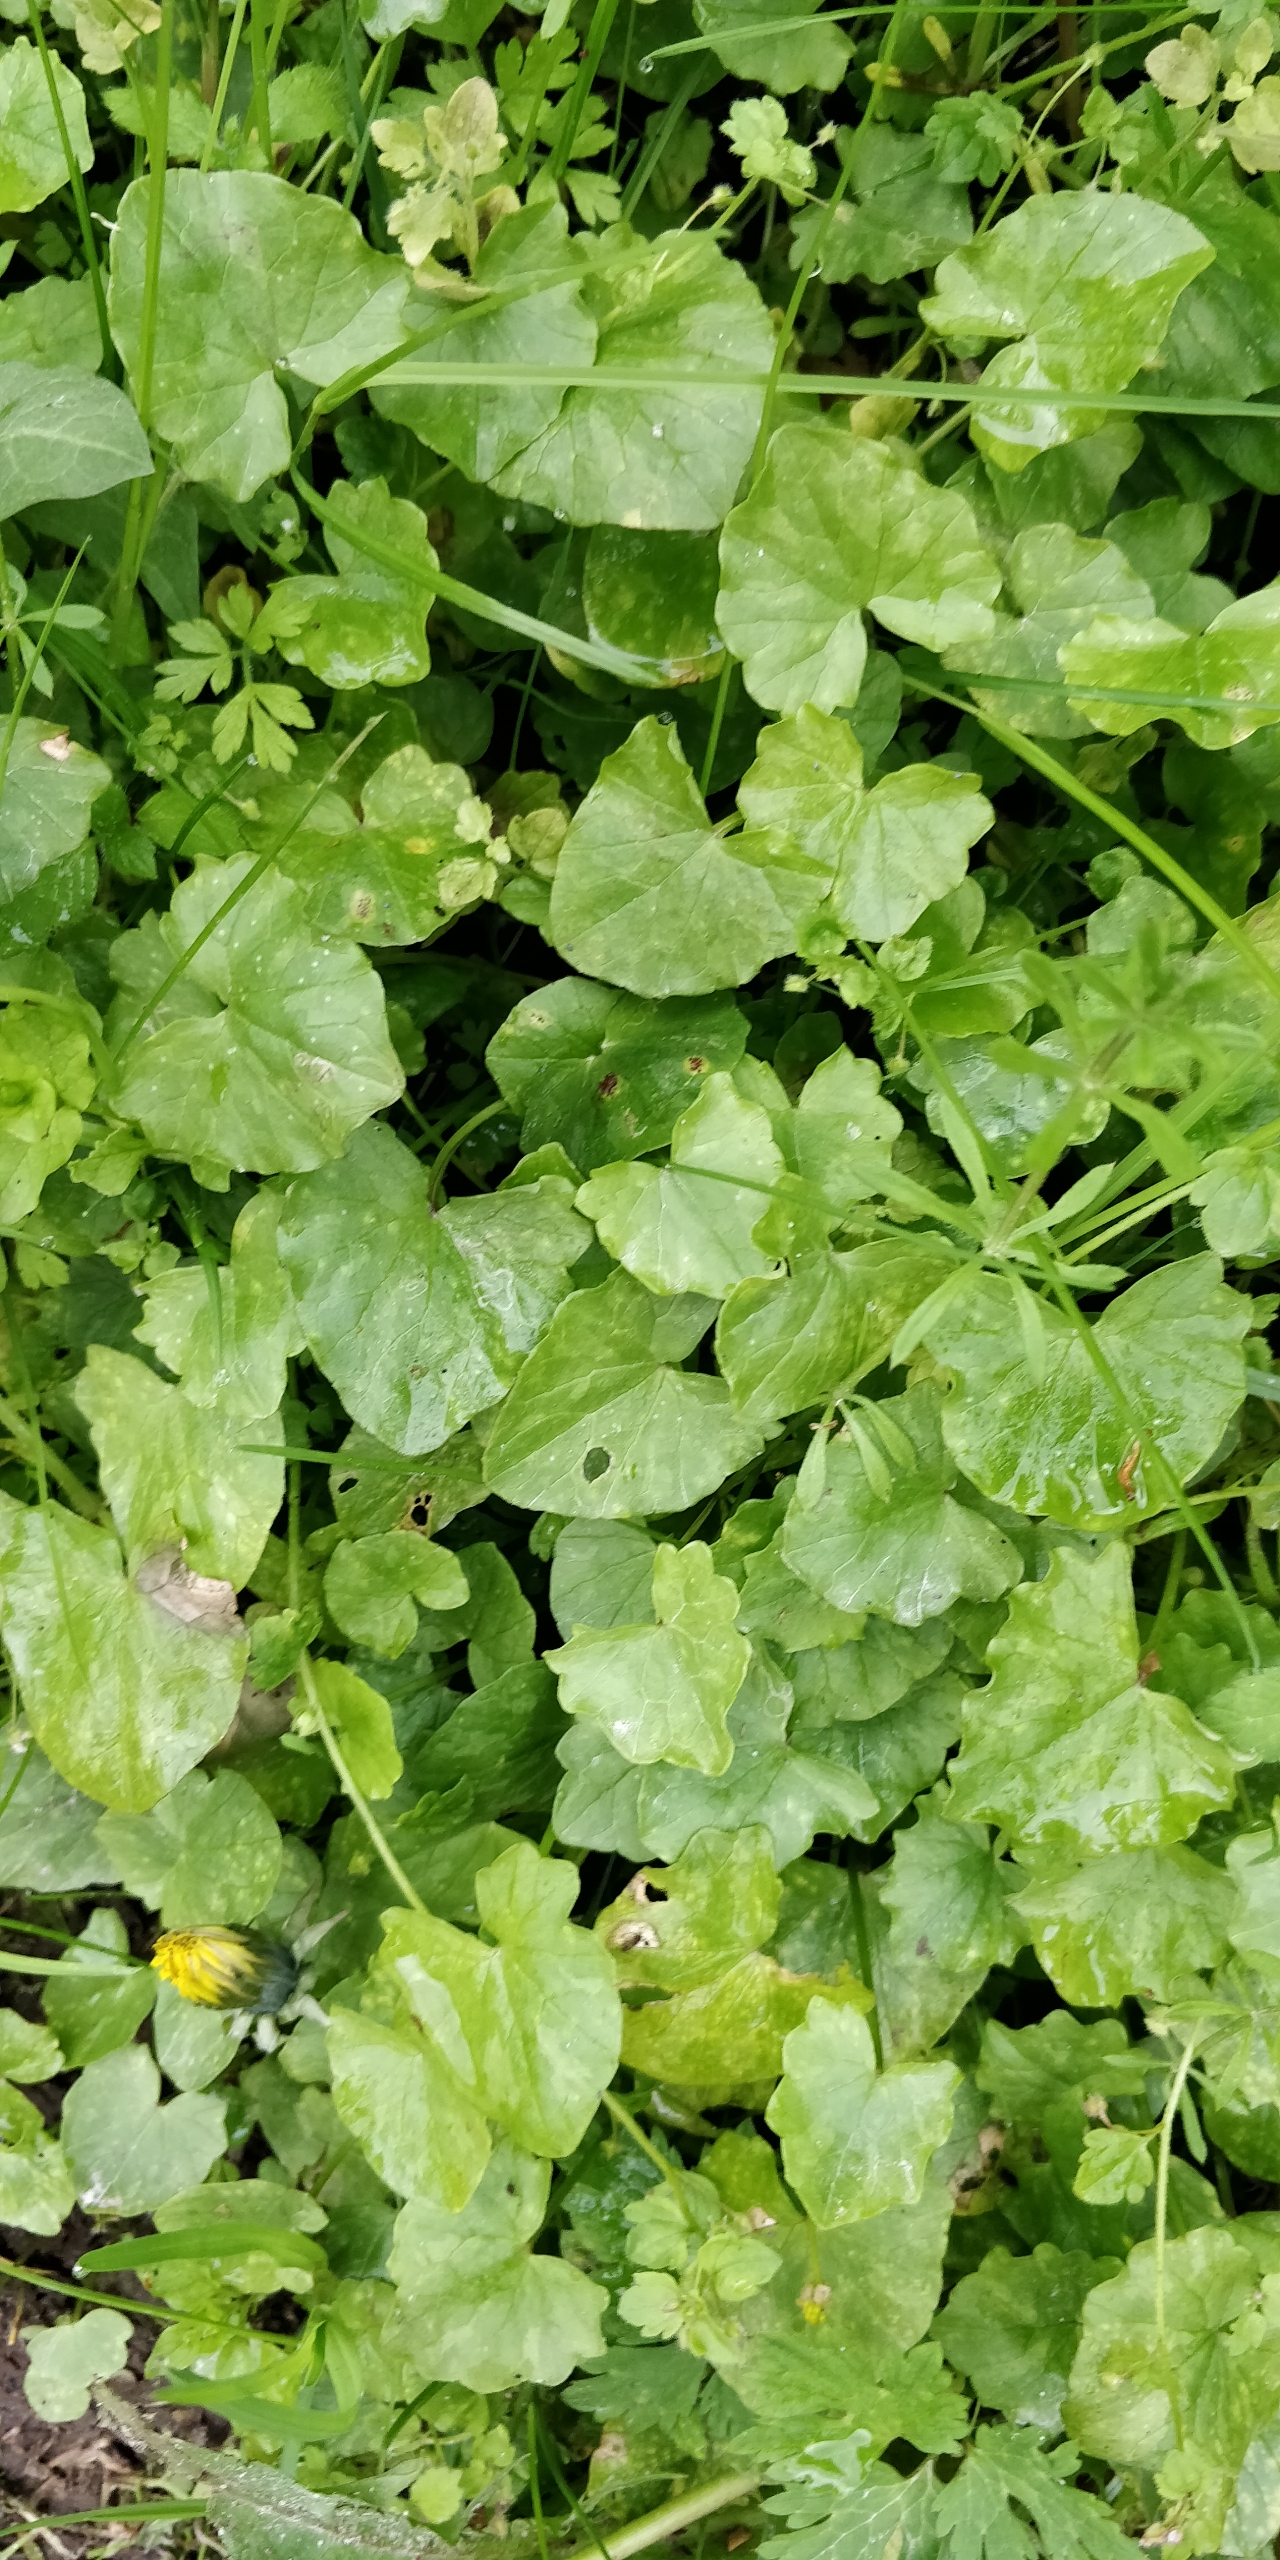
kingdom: Plantae
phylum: Tracheophyta
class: Magnoliopsida
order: Ranunculales
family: Ranunculaceae
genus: Ficaria
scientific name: Ficaria verna
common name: Vorterod
